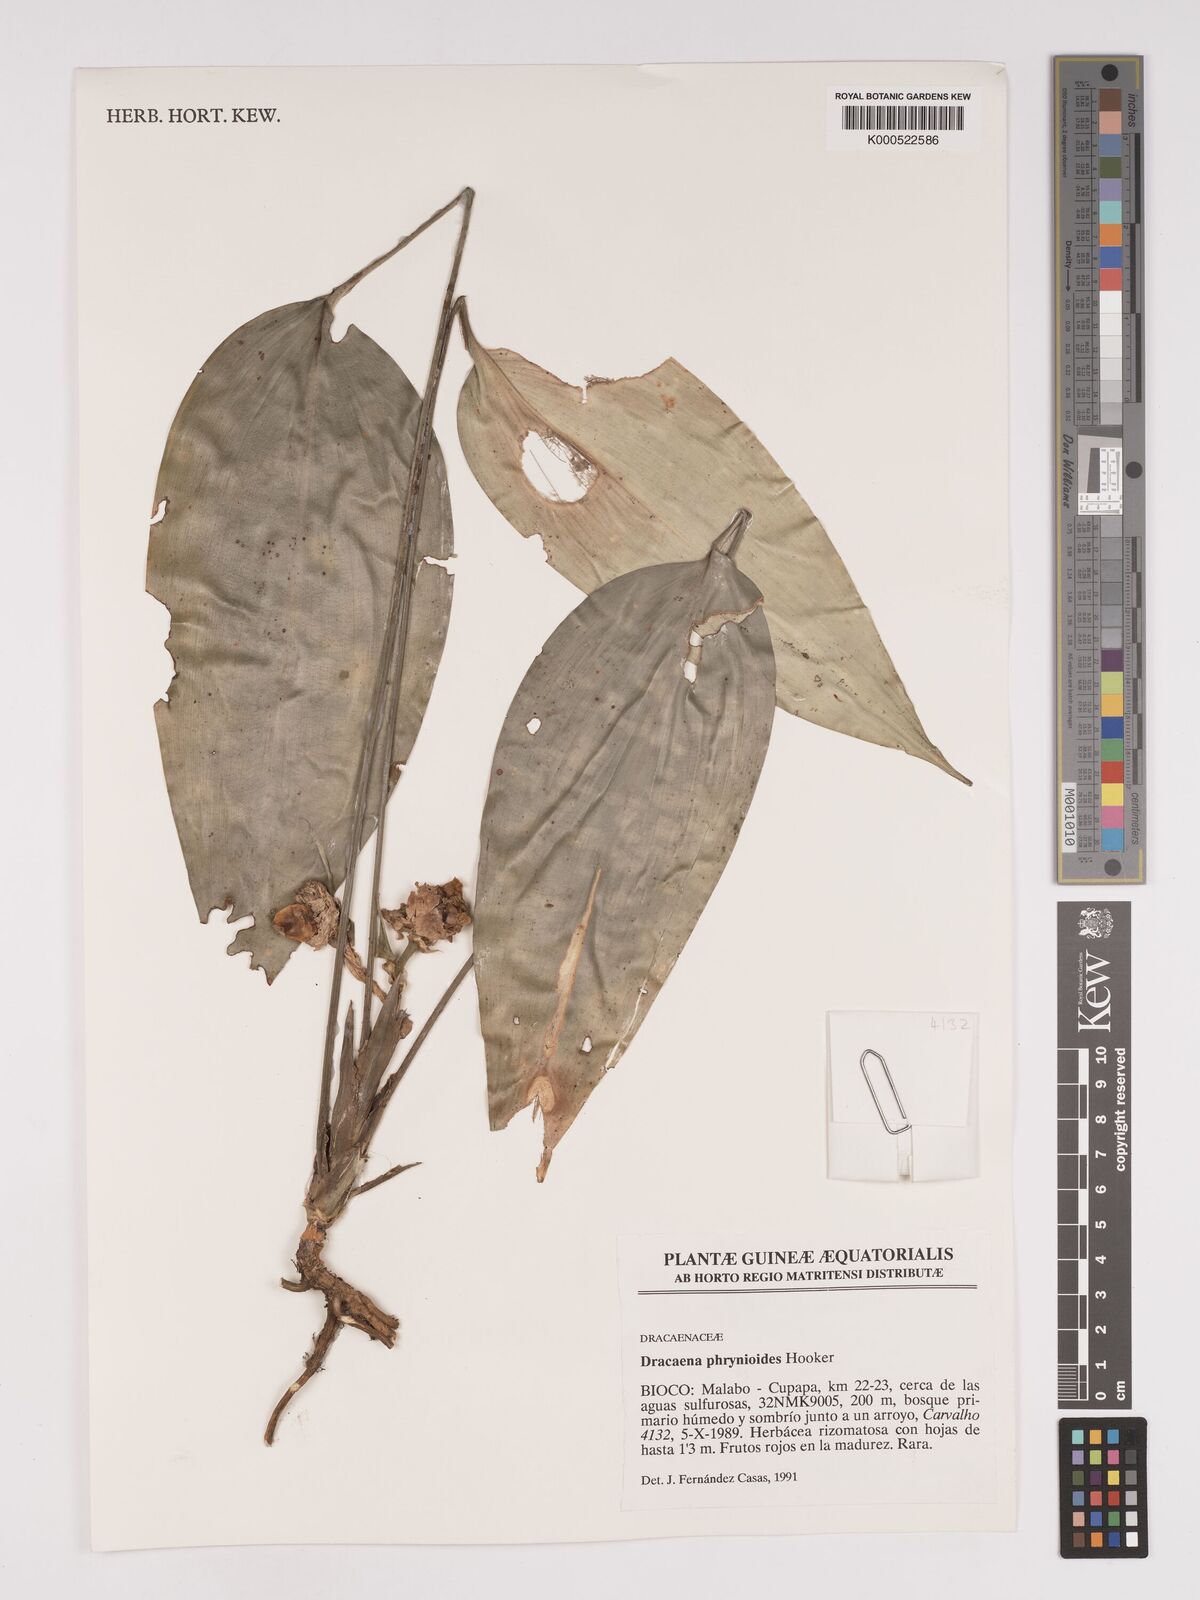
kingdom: Plantae
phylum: Tracheophyta
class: Liliopsida
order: Asparagales
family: Asparagaceae
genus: Dracaena
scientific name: Dracaena phrynioides
